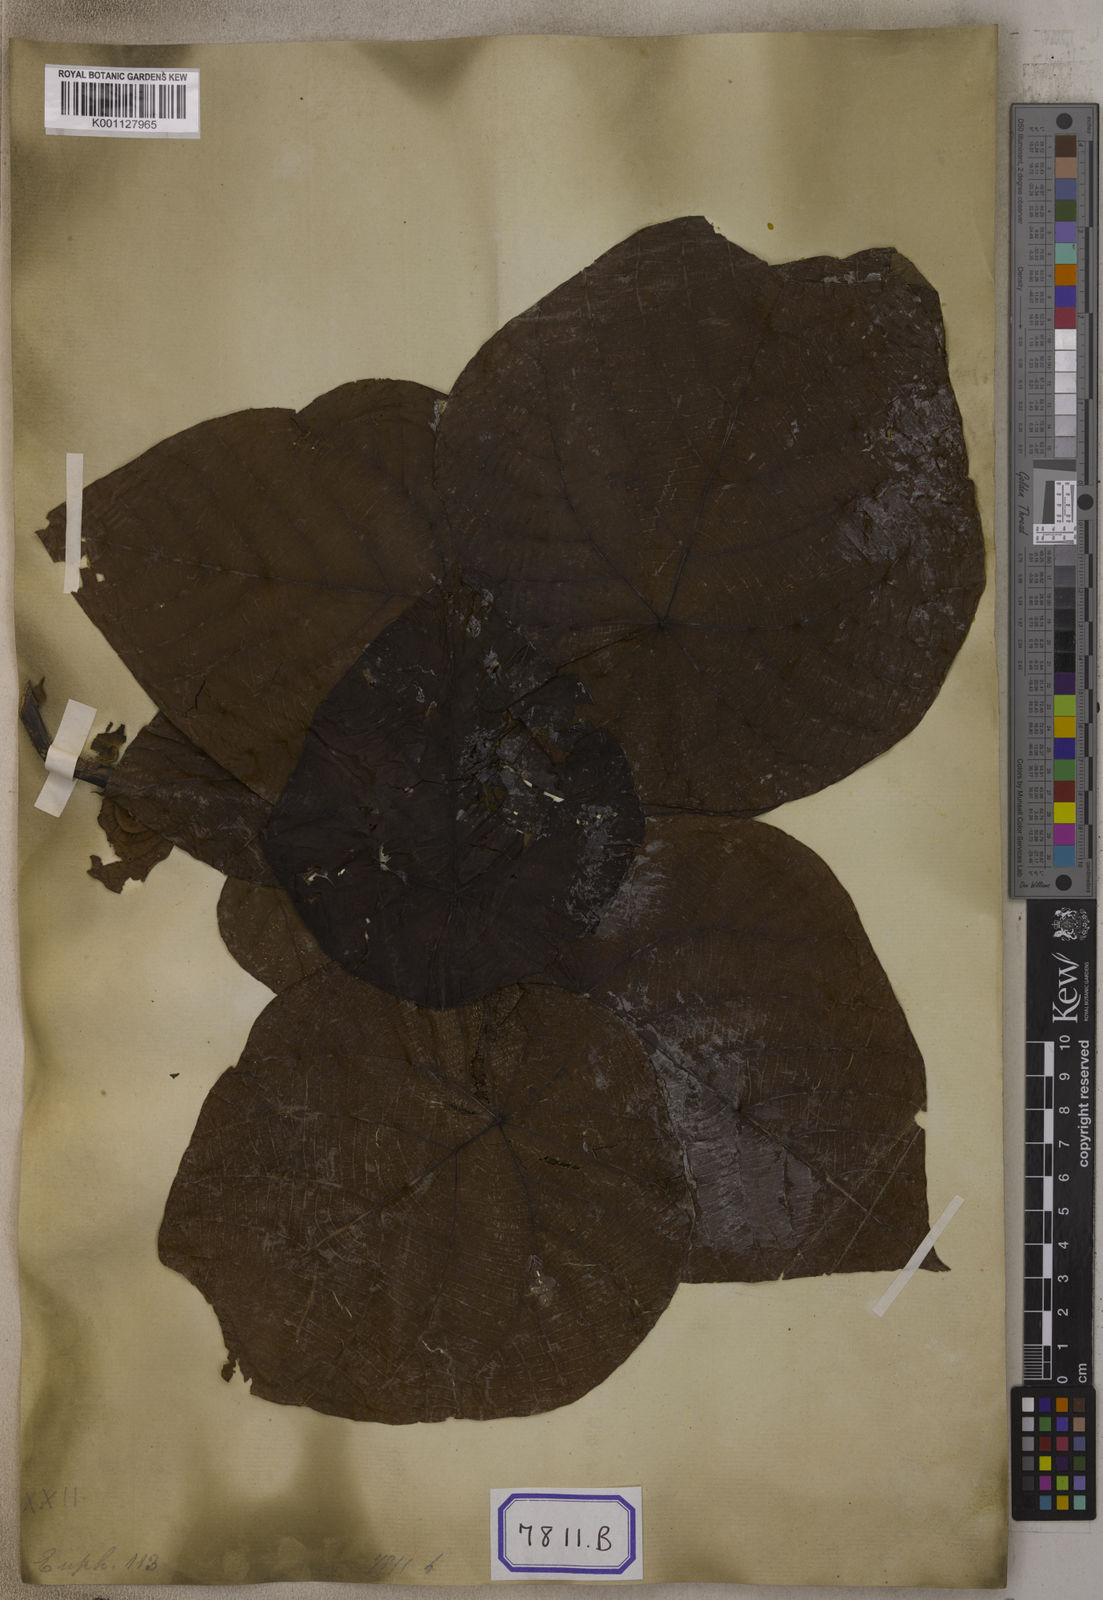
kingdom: Plantae
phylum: Tracheophyta
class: Magnoliopsida
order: Malpighiales
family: Euphorbiaceae
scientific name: Euphorbiaceae
